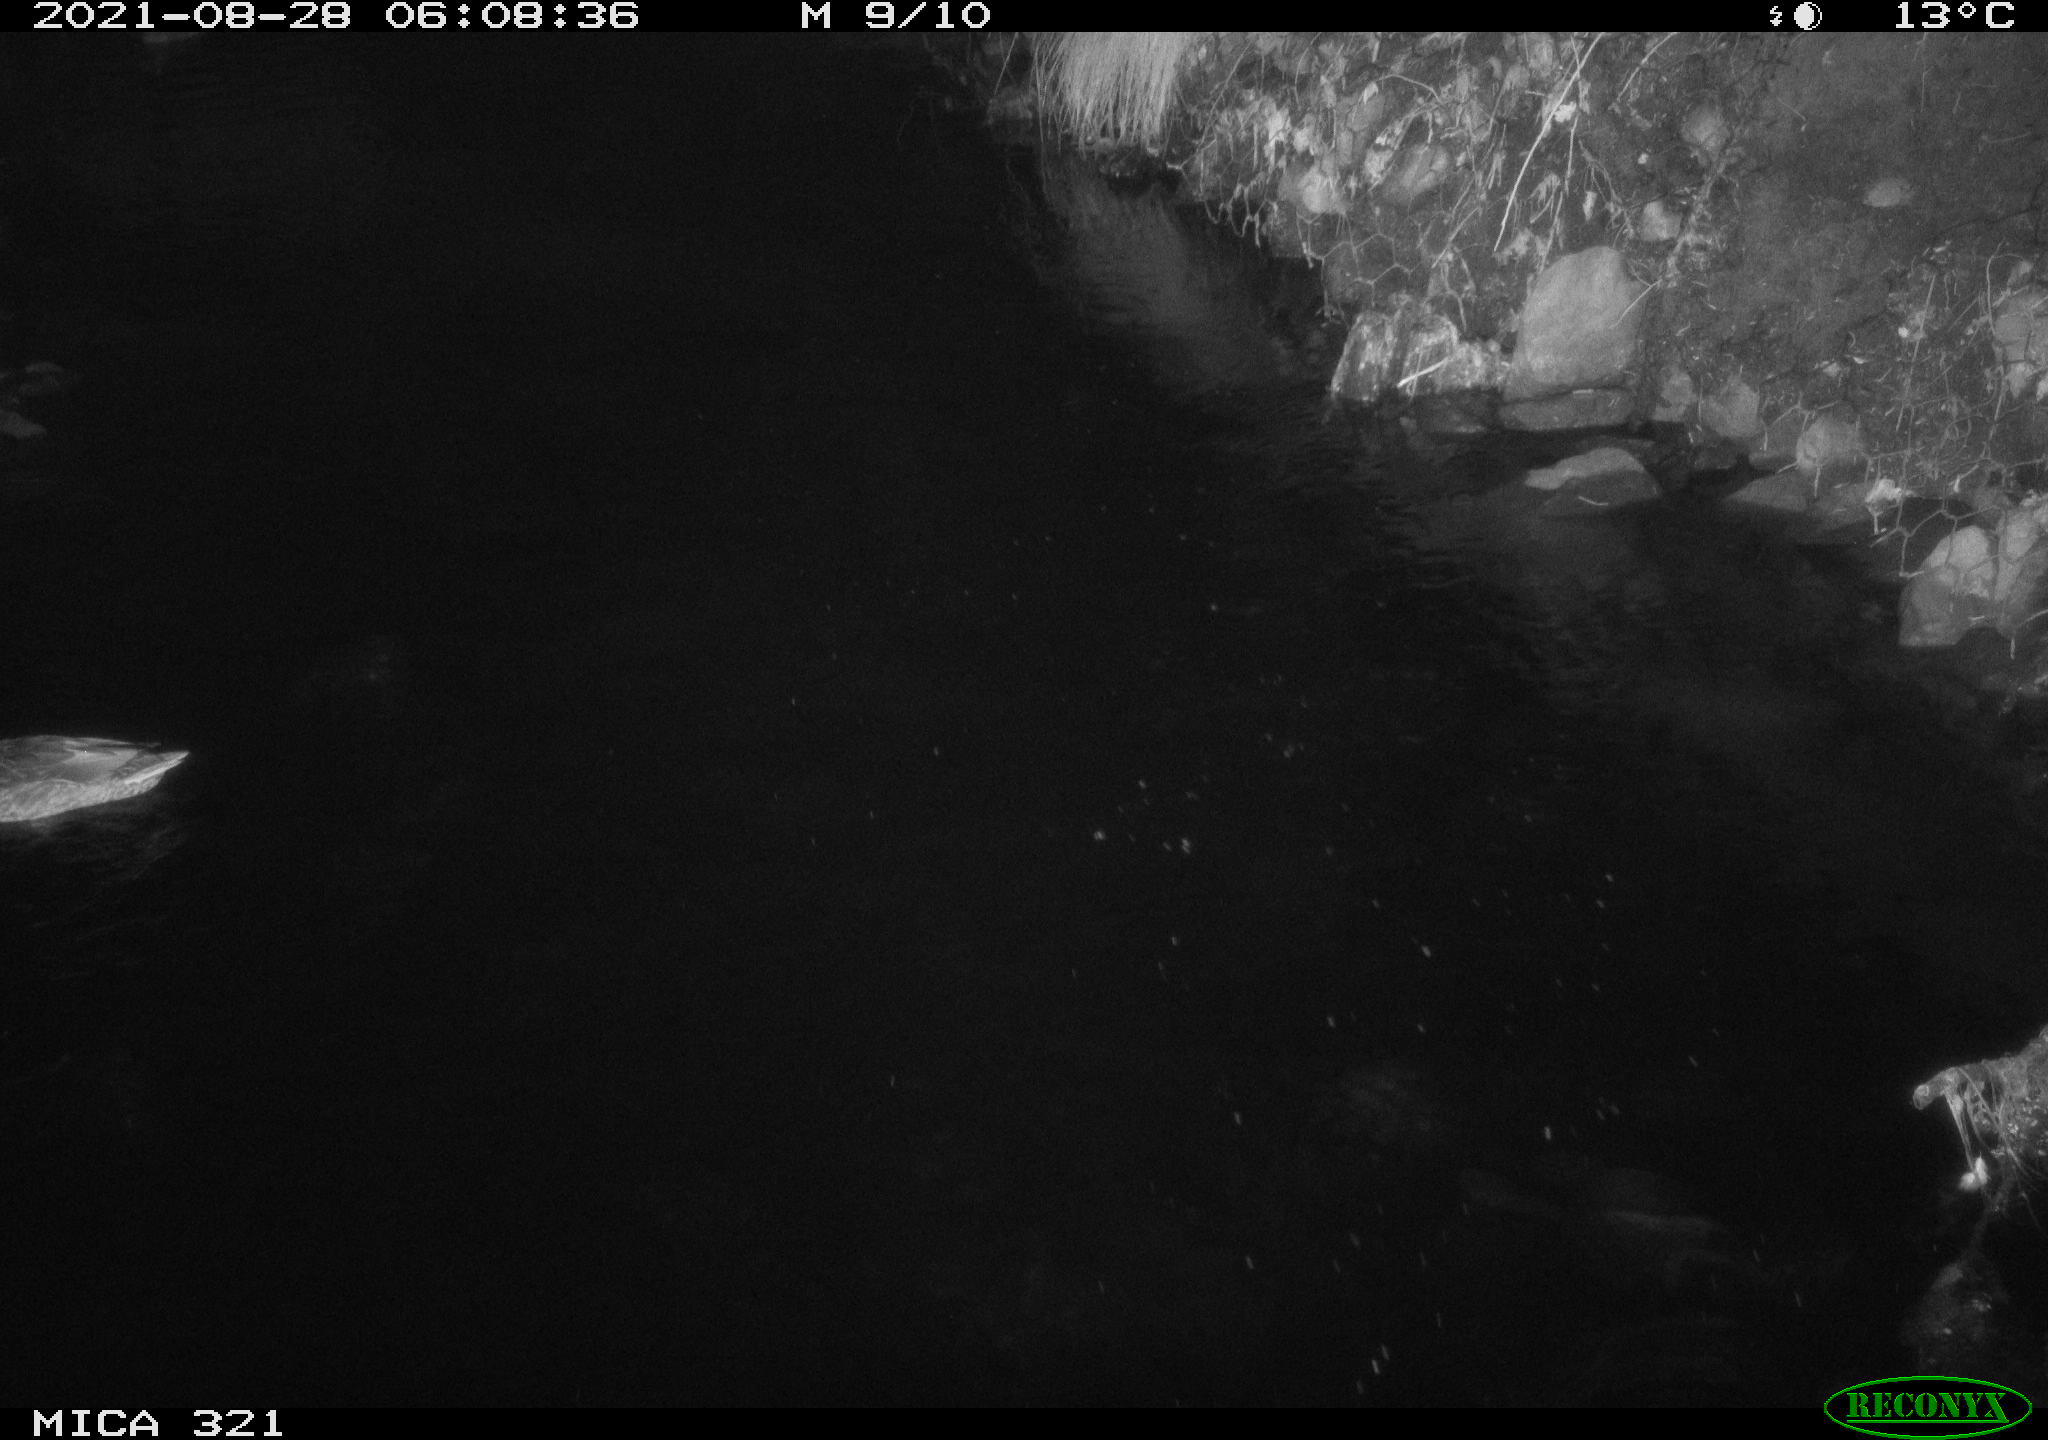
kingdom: Animalia
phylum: Chordata
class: Aves
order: Anseriformes
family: Anatidae
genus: Anas
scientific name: Anas platyrhynchos
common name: Mallard
